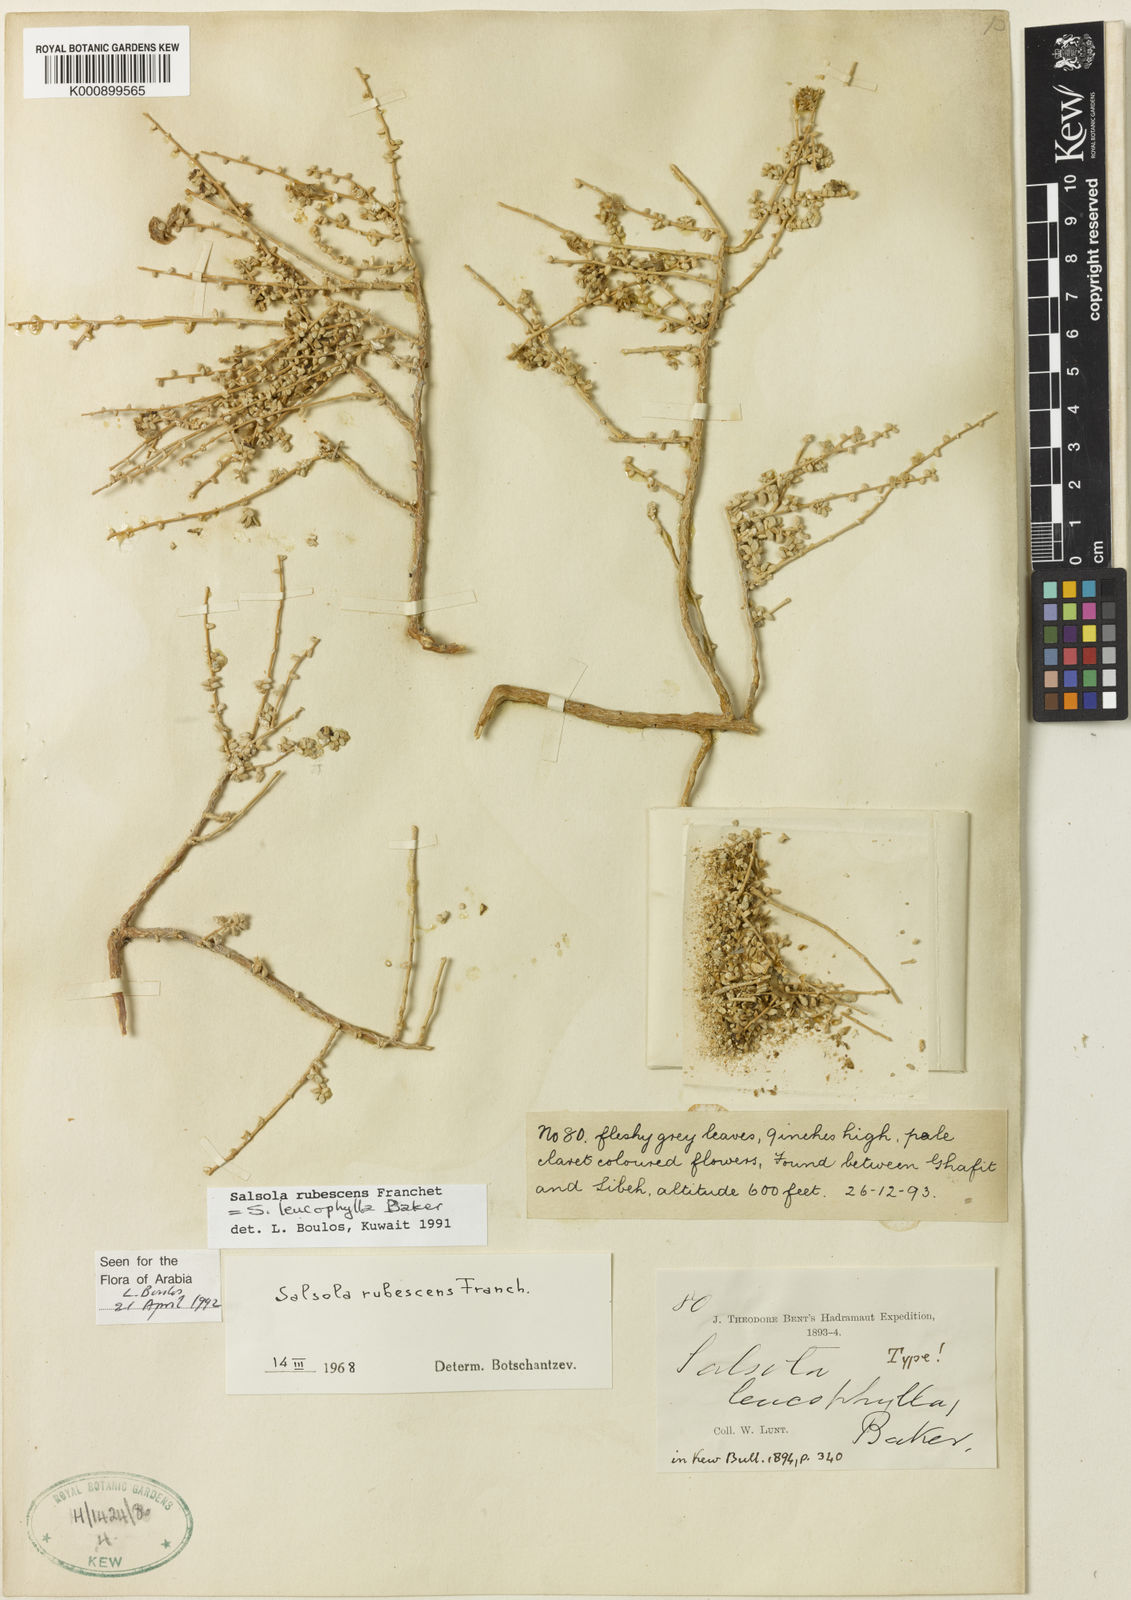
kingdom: Plantae
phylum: Tracheophyta
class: Magnoliopsida
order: Caryophyllales
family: Amaranthaceae
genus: Kaviria
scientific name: Kaviria rubescens
